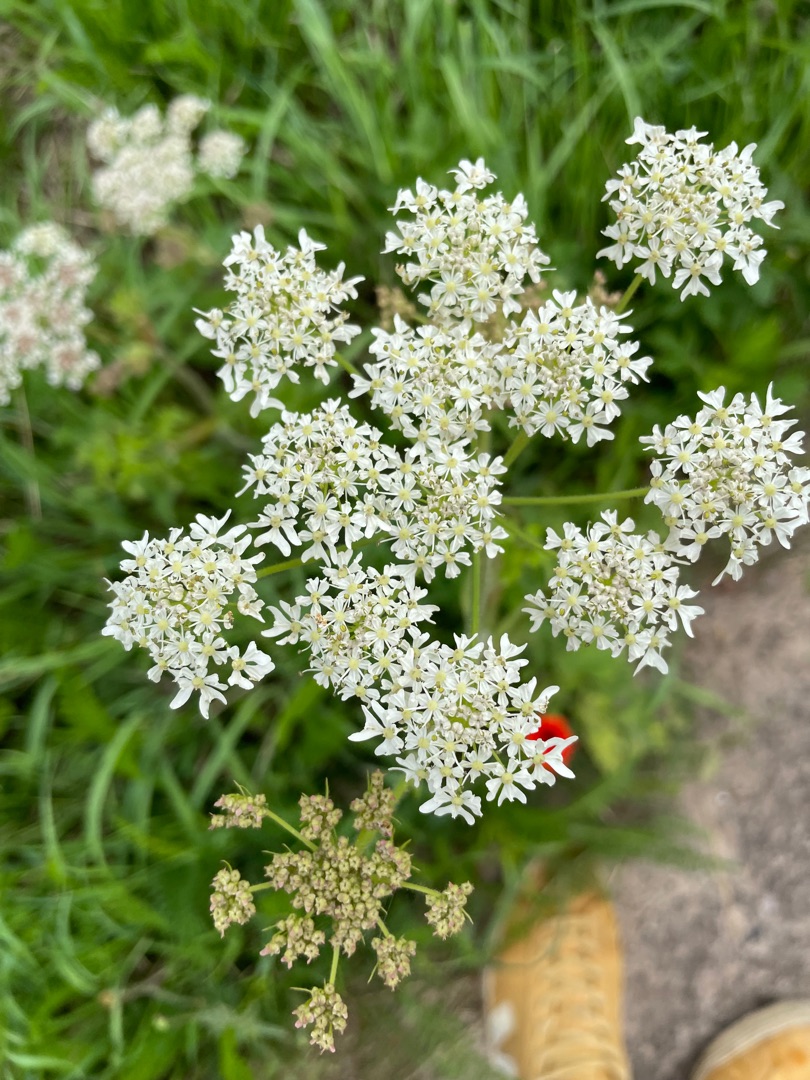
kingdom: Plantae
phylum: Tracheophyta
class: Magnoliopsida
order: Apiales
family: Apiaceae
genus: Heracleum
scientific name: Heracleum sphondylium
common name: Almindelig bjørneklo
